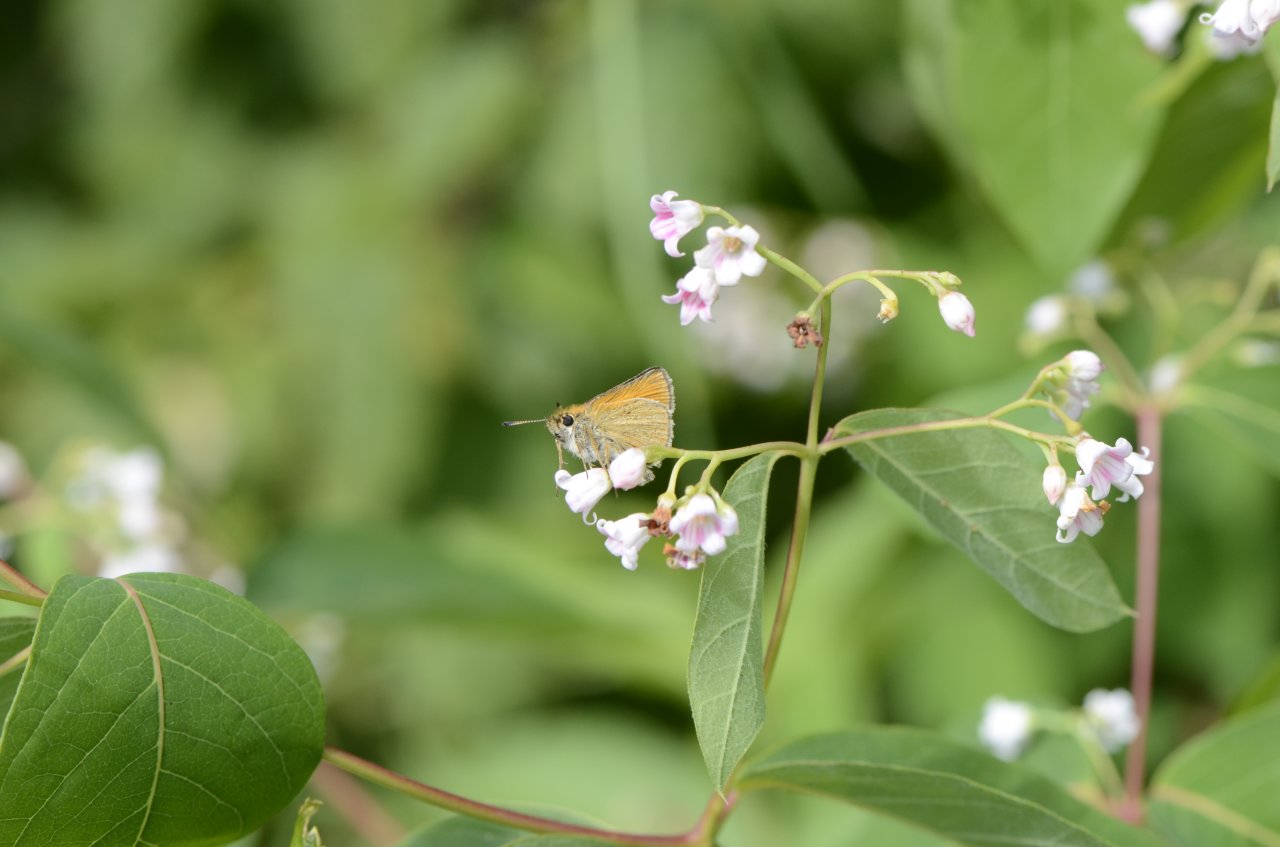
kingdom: Animalia
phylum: Arthropoda
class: Insecta
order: Lepidoptera
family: Hesperiidae
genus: Thymelicus
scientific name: Thymelicus lineola
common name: European Skipper
